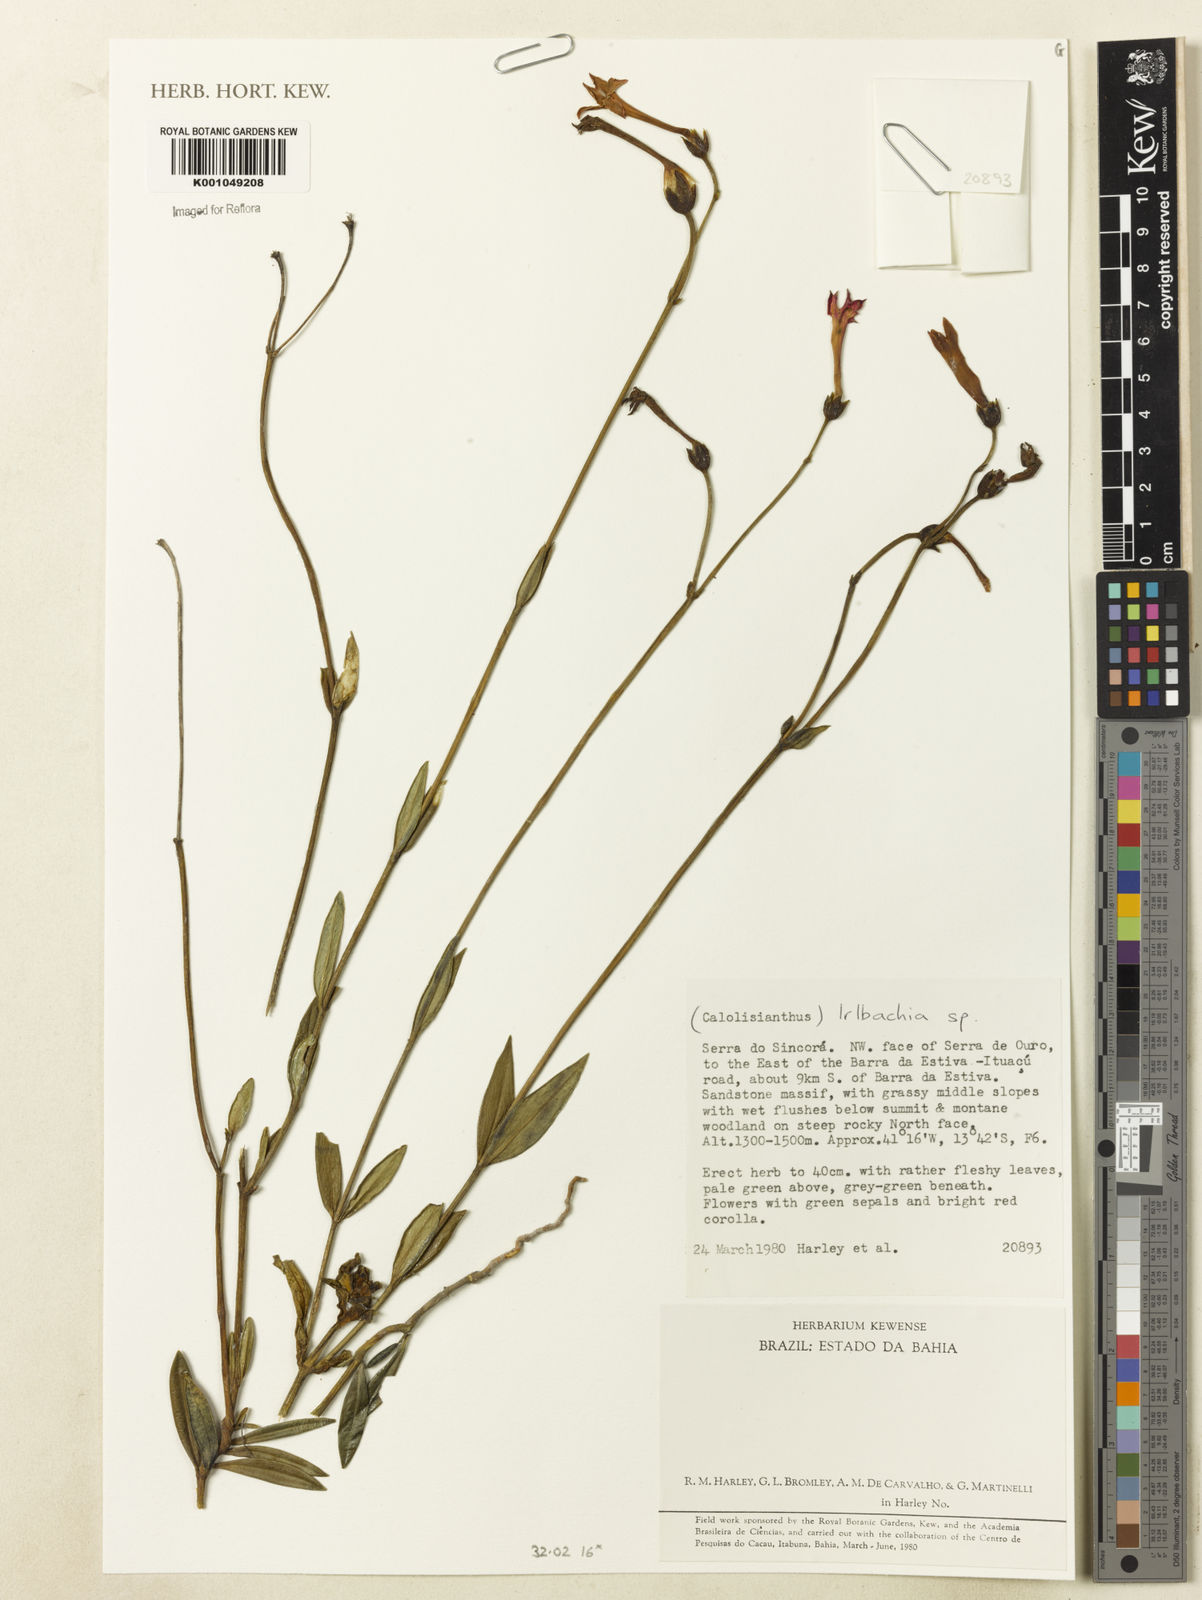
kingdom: Plantae
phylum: Tracheophyta
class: Magnoliopsida
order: Gentianales
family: Gentianaceae
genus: Irlbachia
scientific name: Irlbachia
